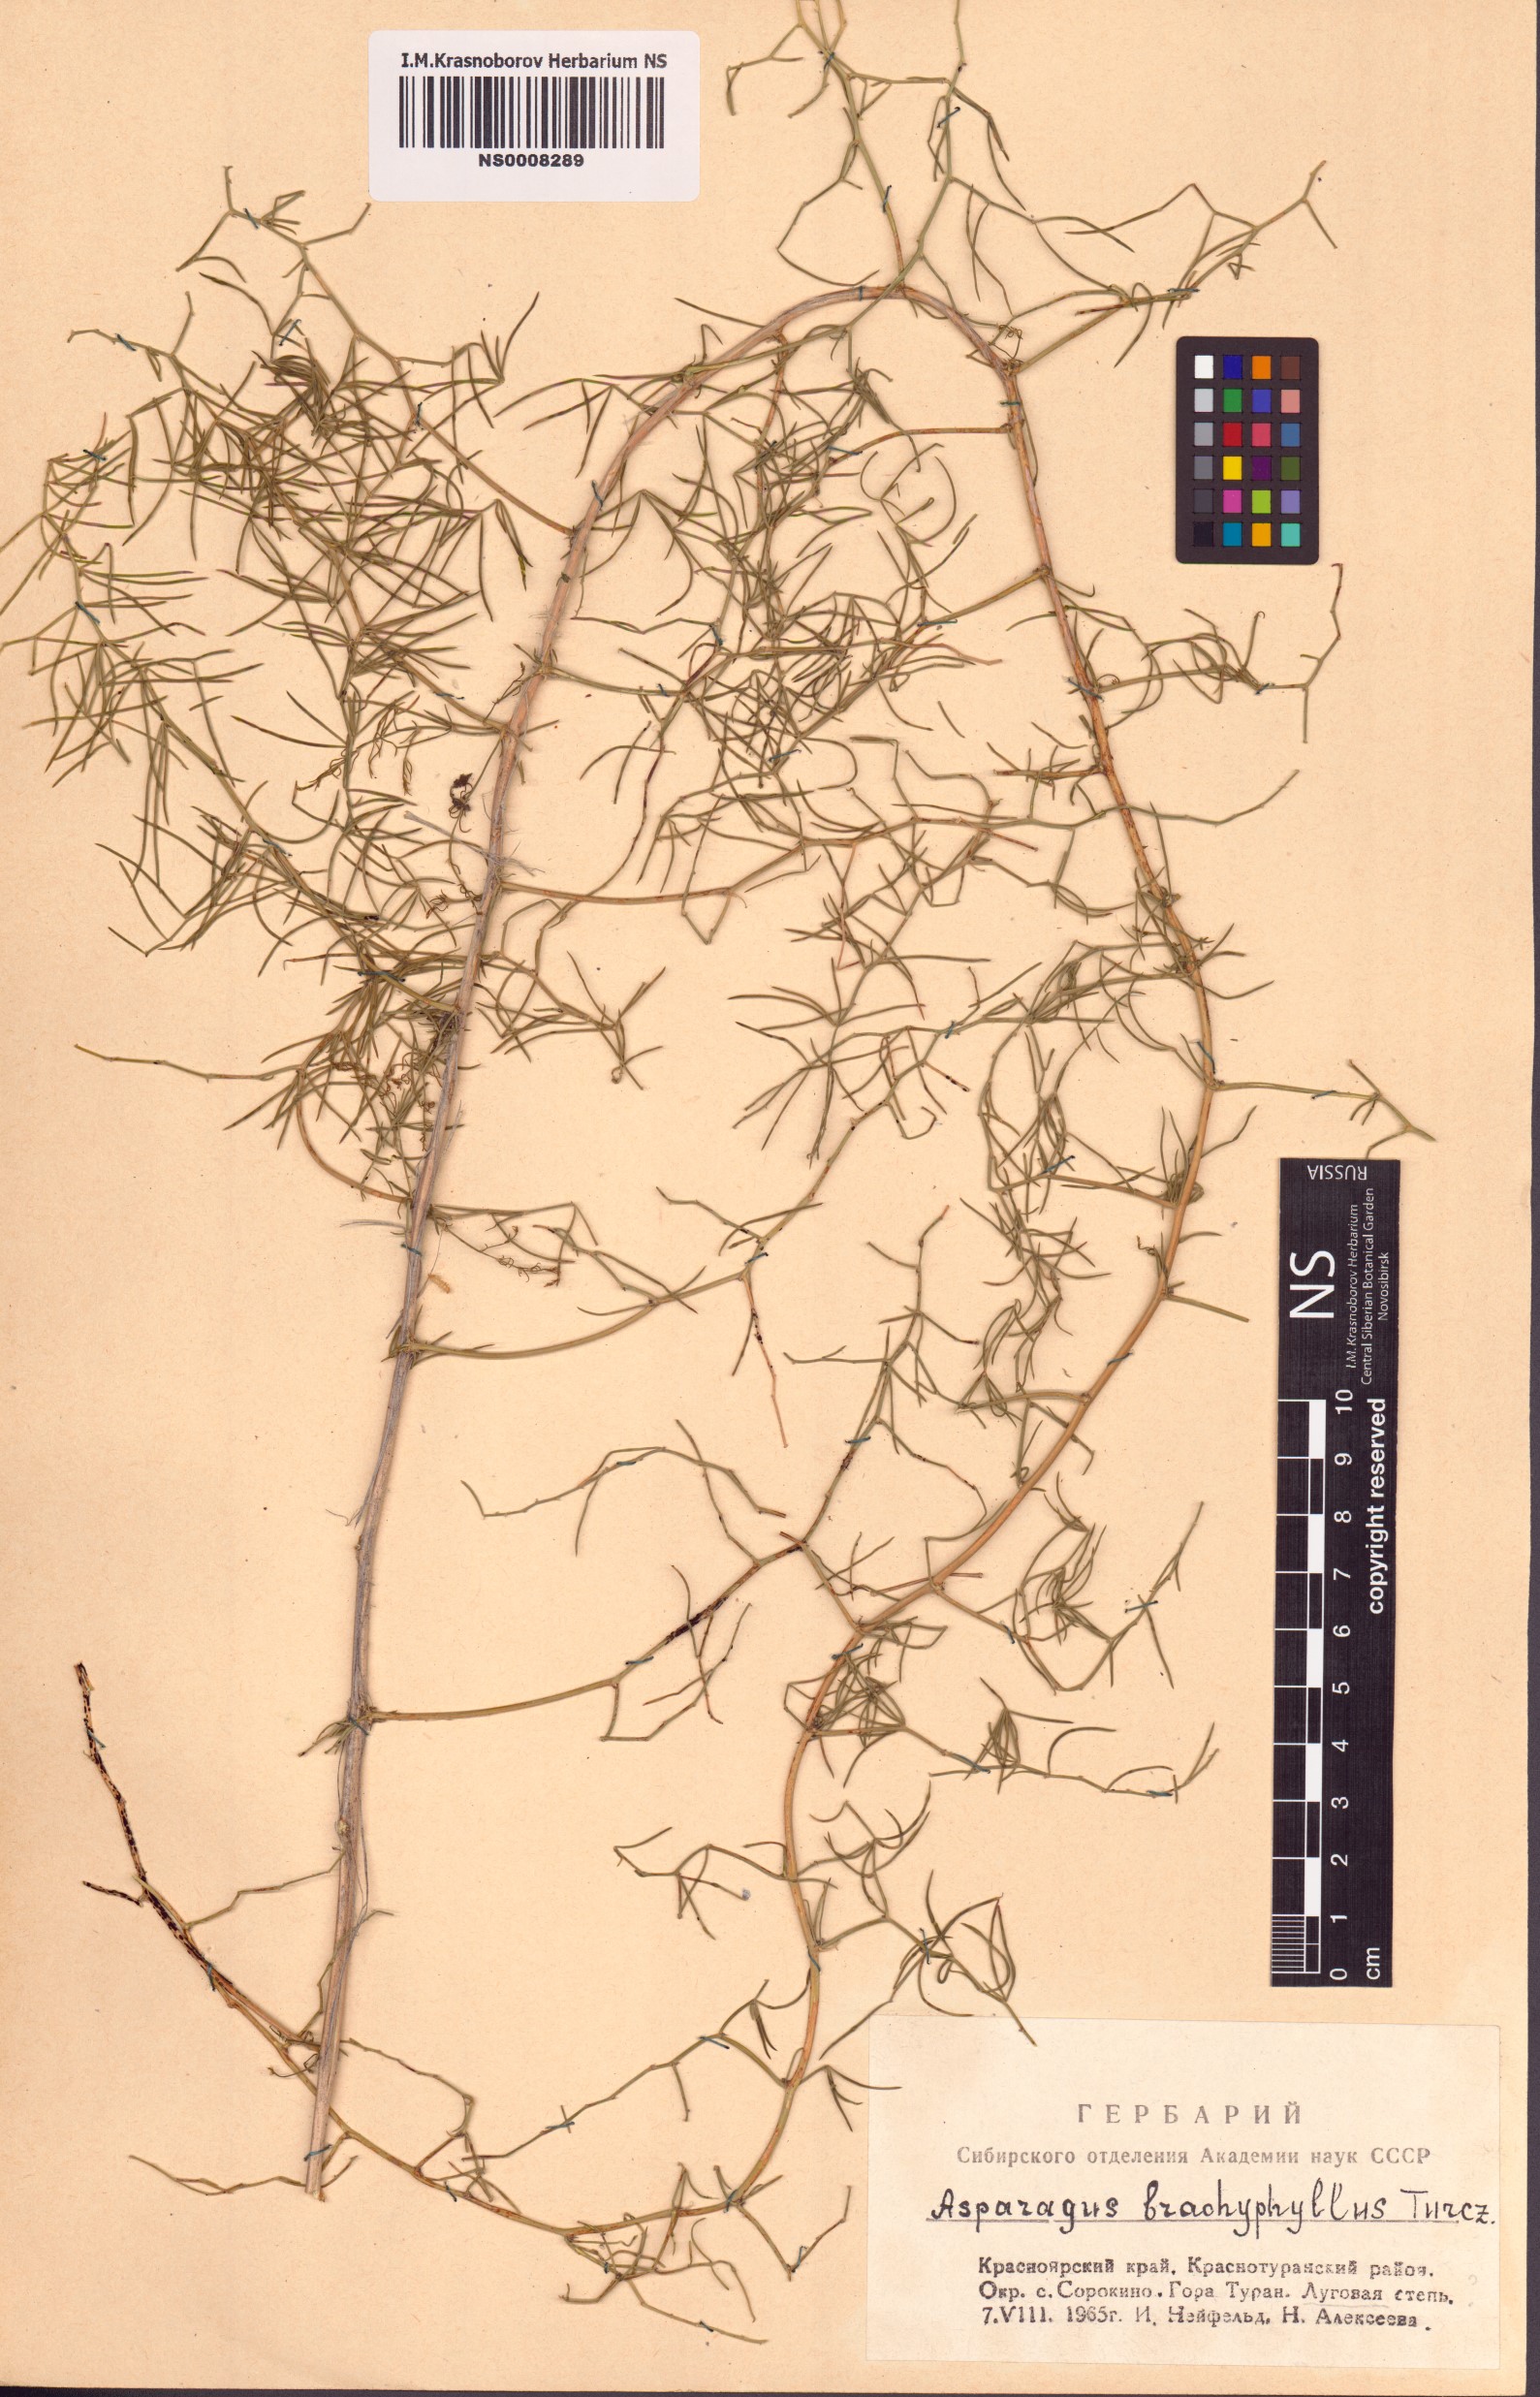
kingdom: Plantae
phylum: Tracheophyta
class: Liliopsida
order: Asparagales
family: Asparagaceae
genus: Asparagus
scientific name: Asparagus brachyphyllus
